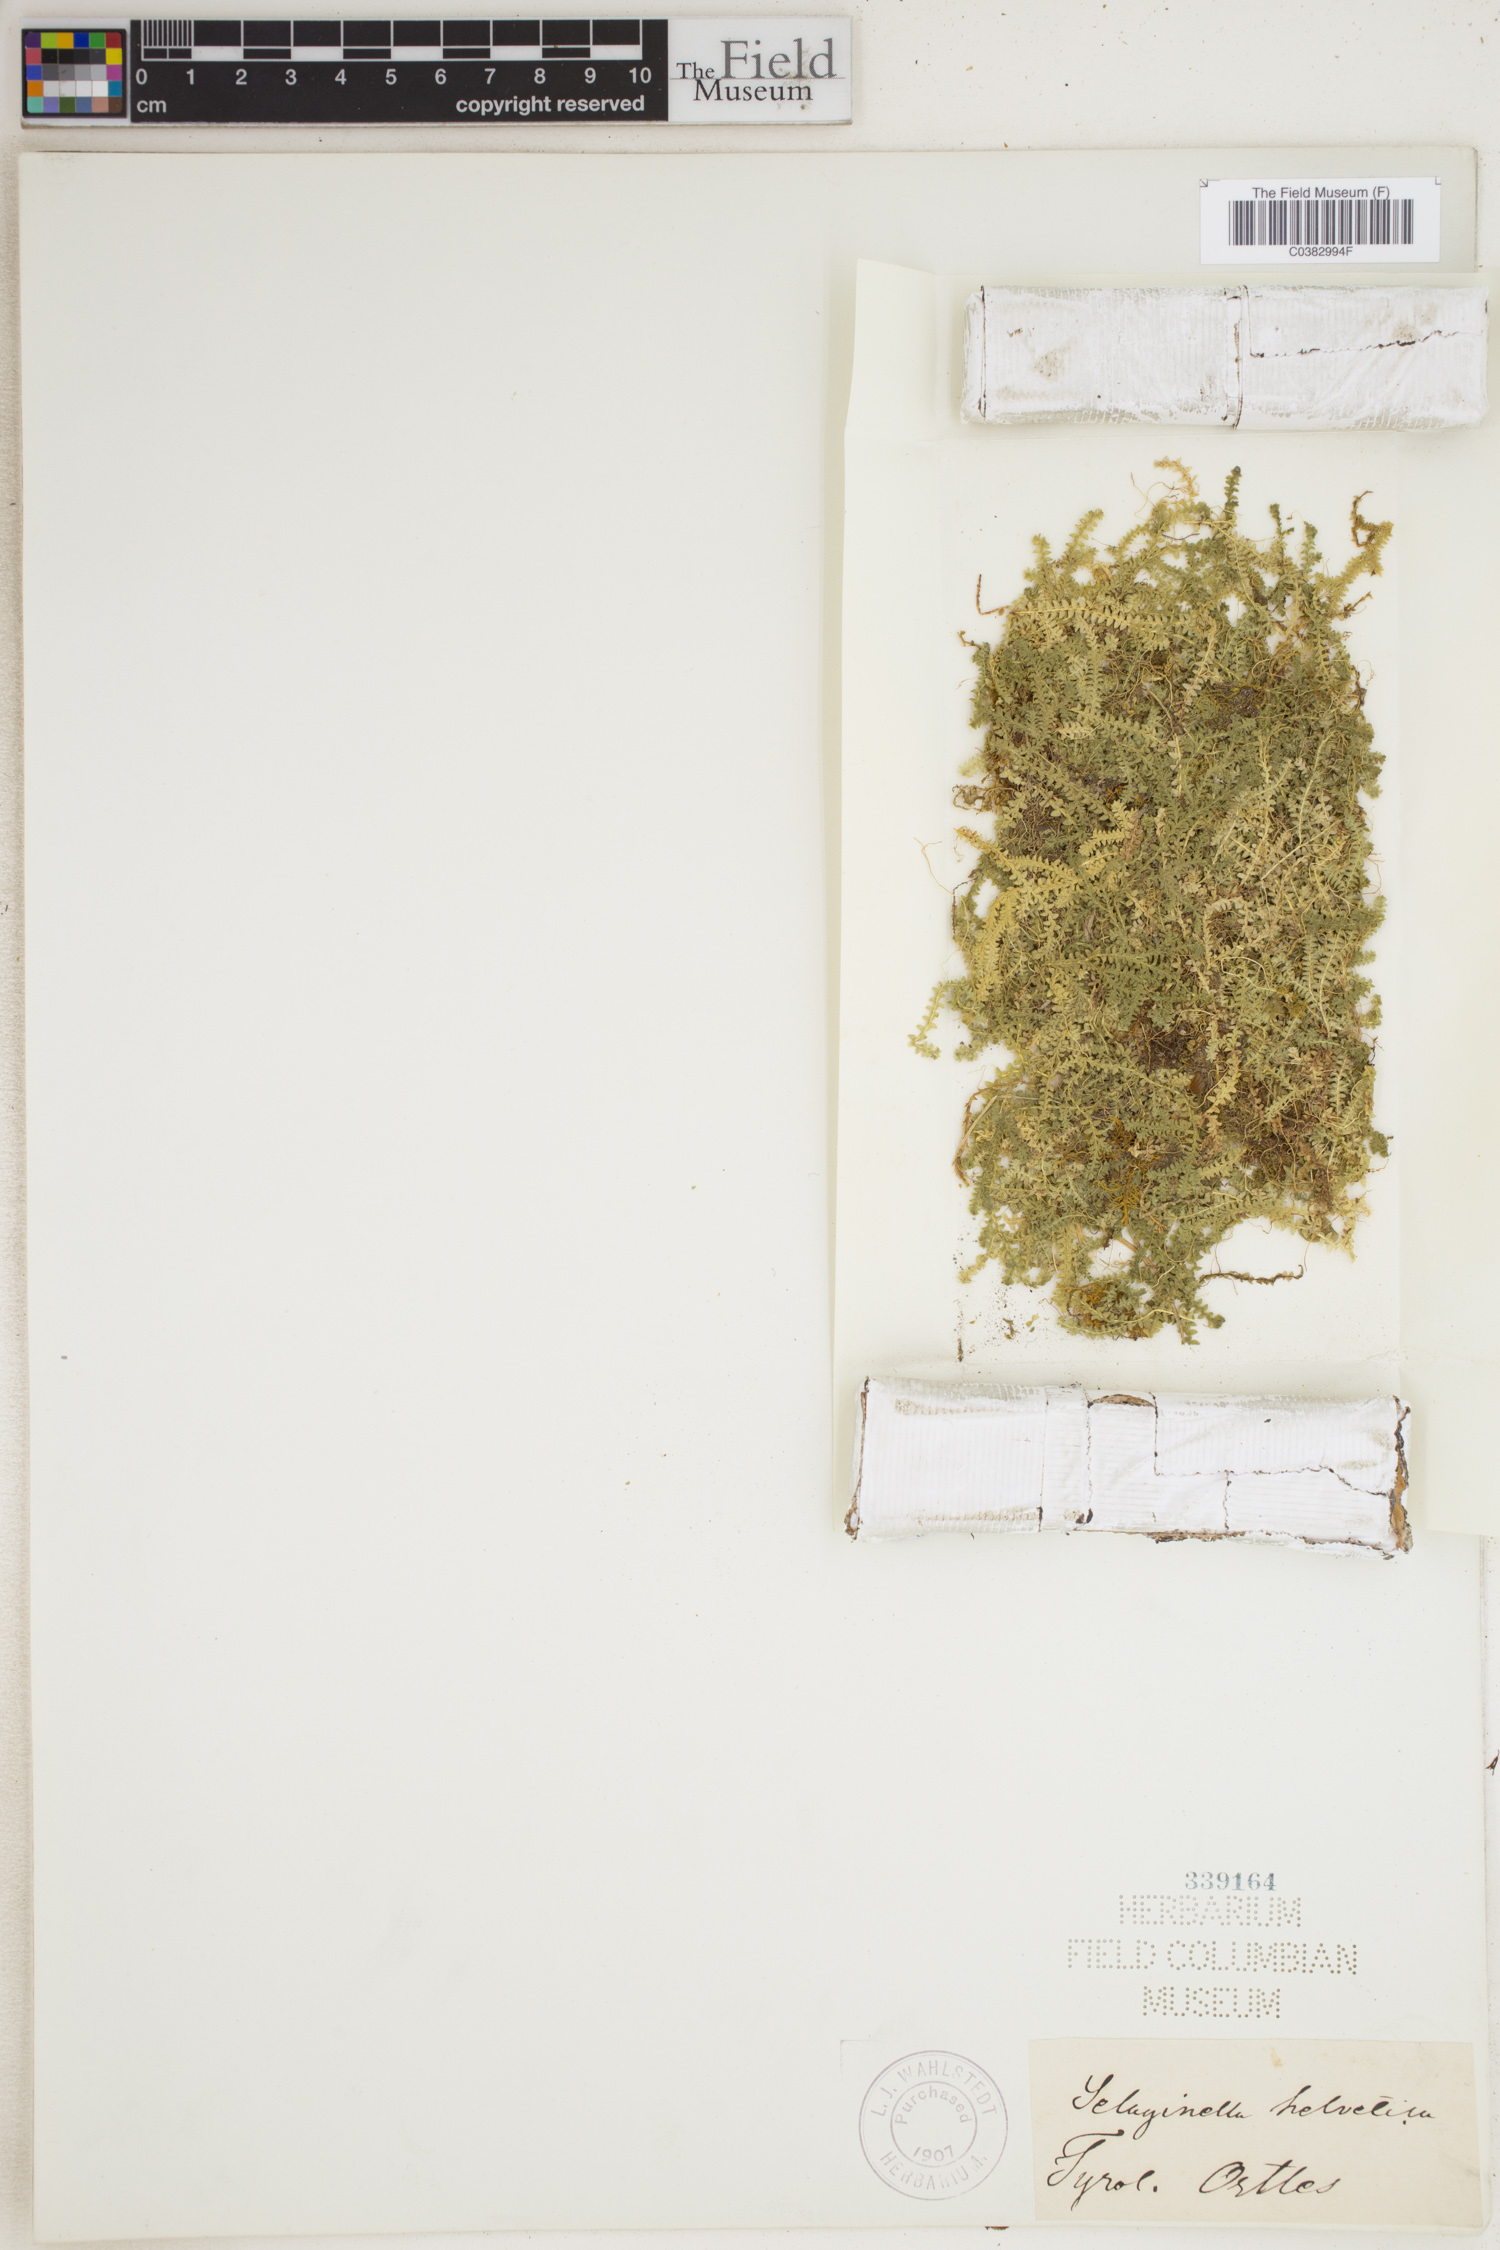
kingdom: Plantae
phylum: Tracheophyta
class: Lycopodiopsida
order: Selaginellales
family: Selaginellaceae
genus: Selaginella
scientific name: Selaginella helvetica
